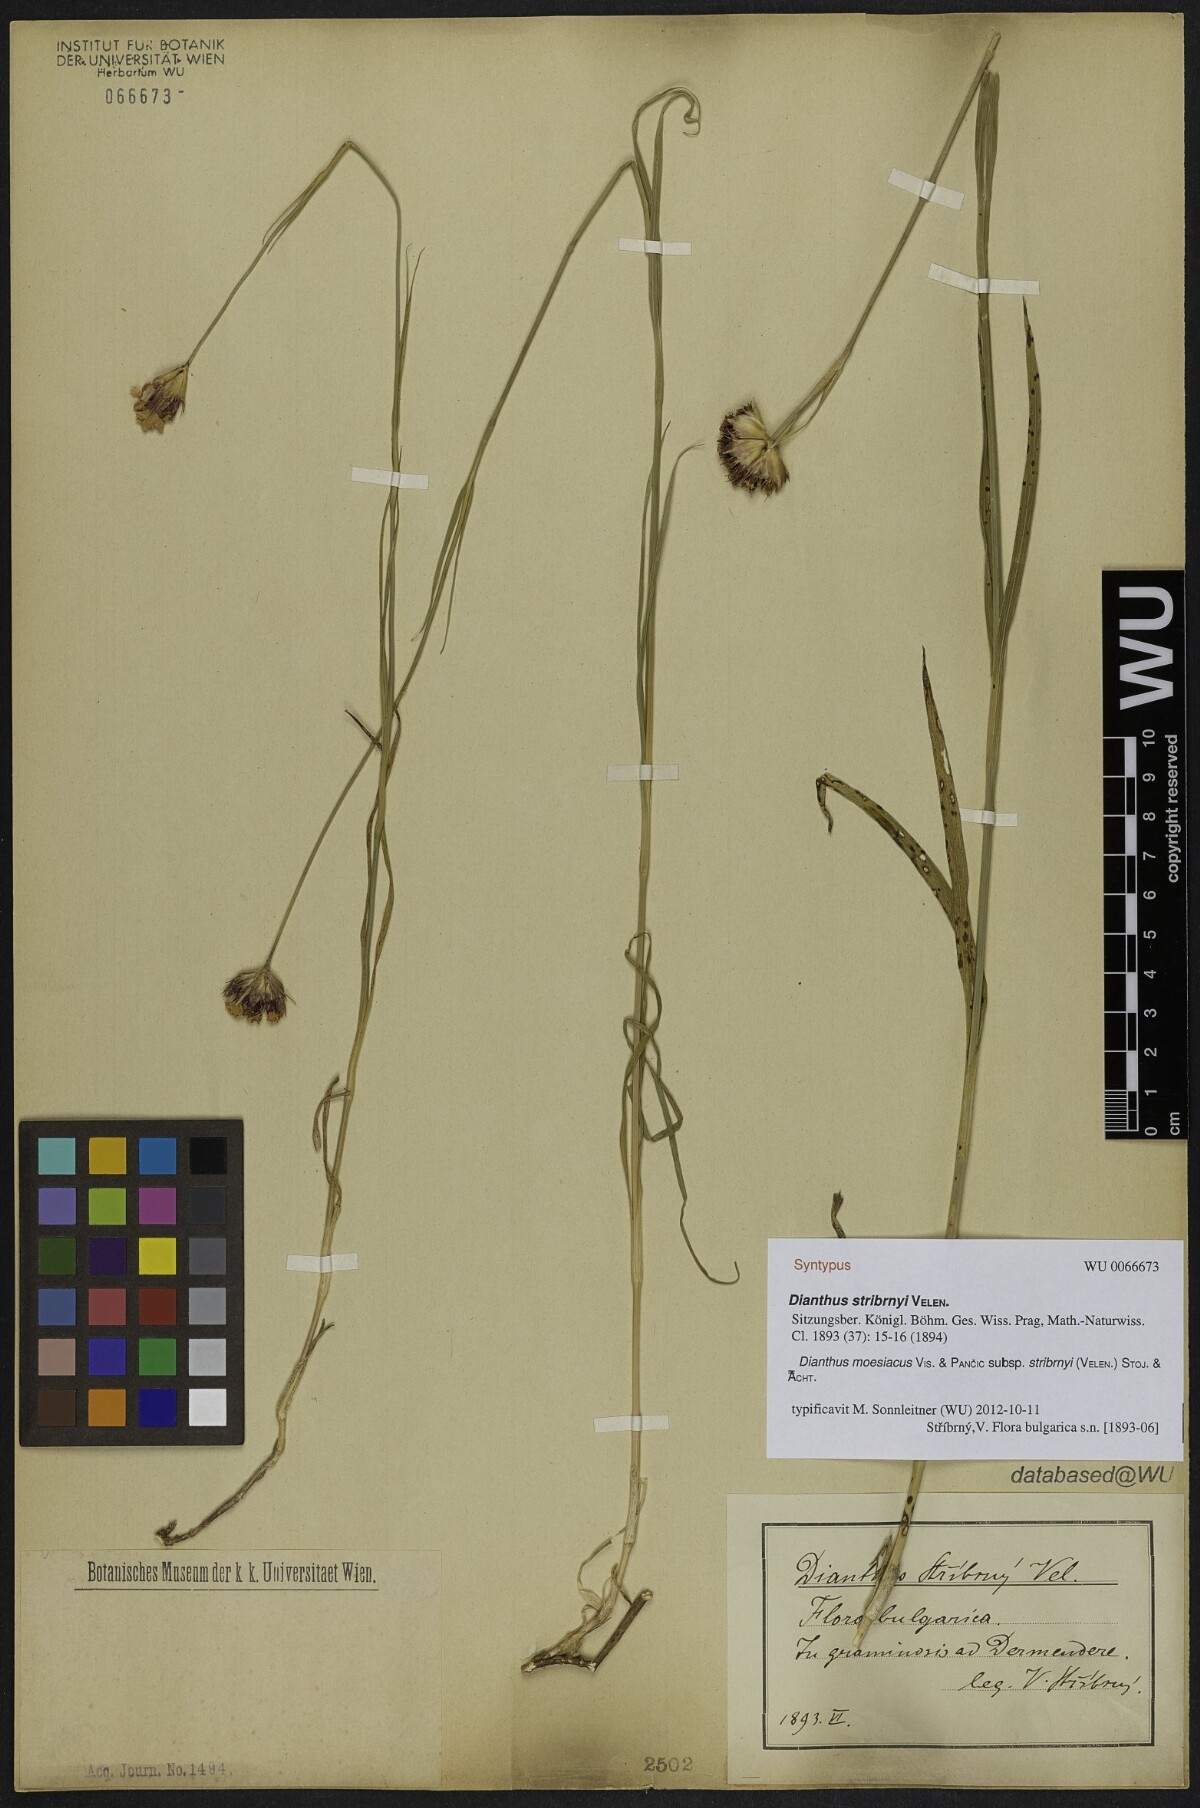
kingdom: Plantae
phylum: Tracheophyta
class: Magnoliopsida
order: Caryophyllales
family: Caryophyllaceae
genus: Dianthus
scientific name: Dianthus stribrnyi
